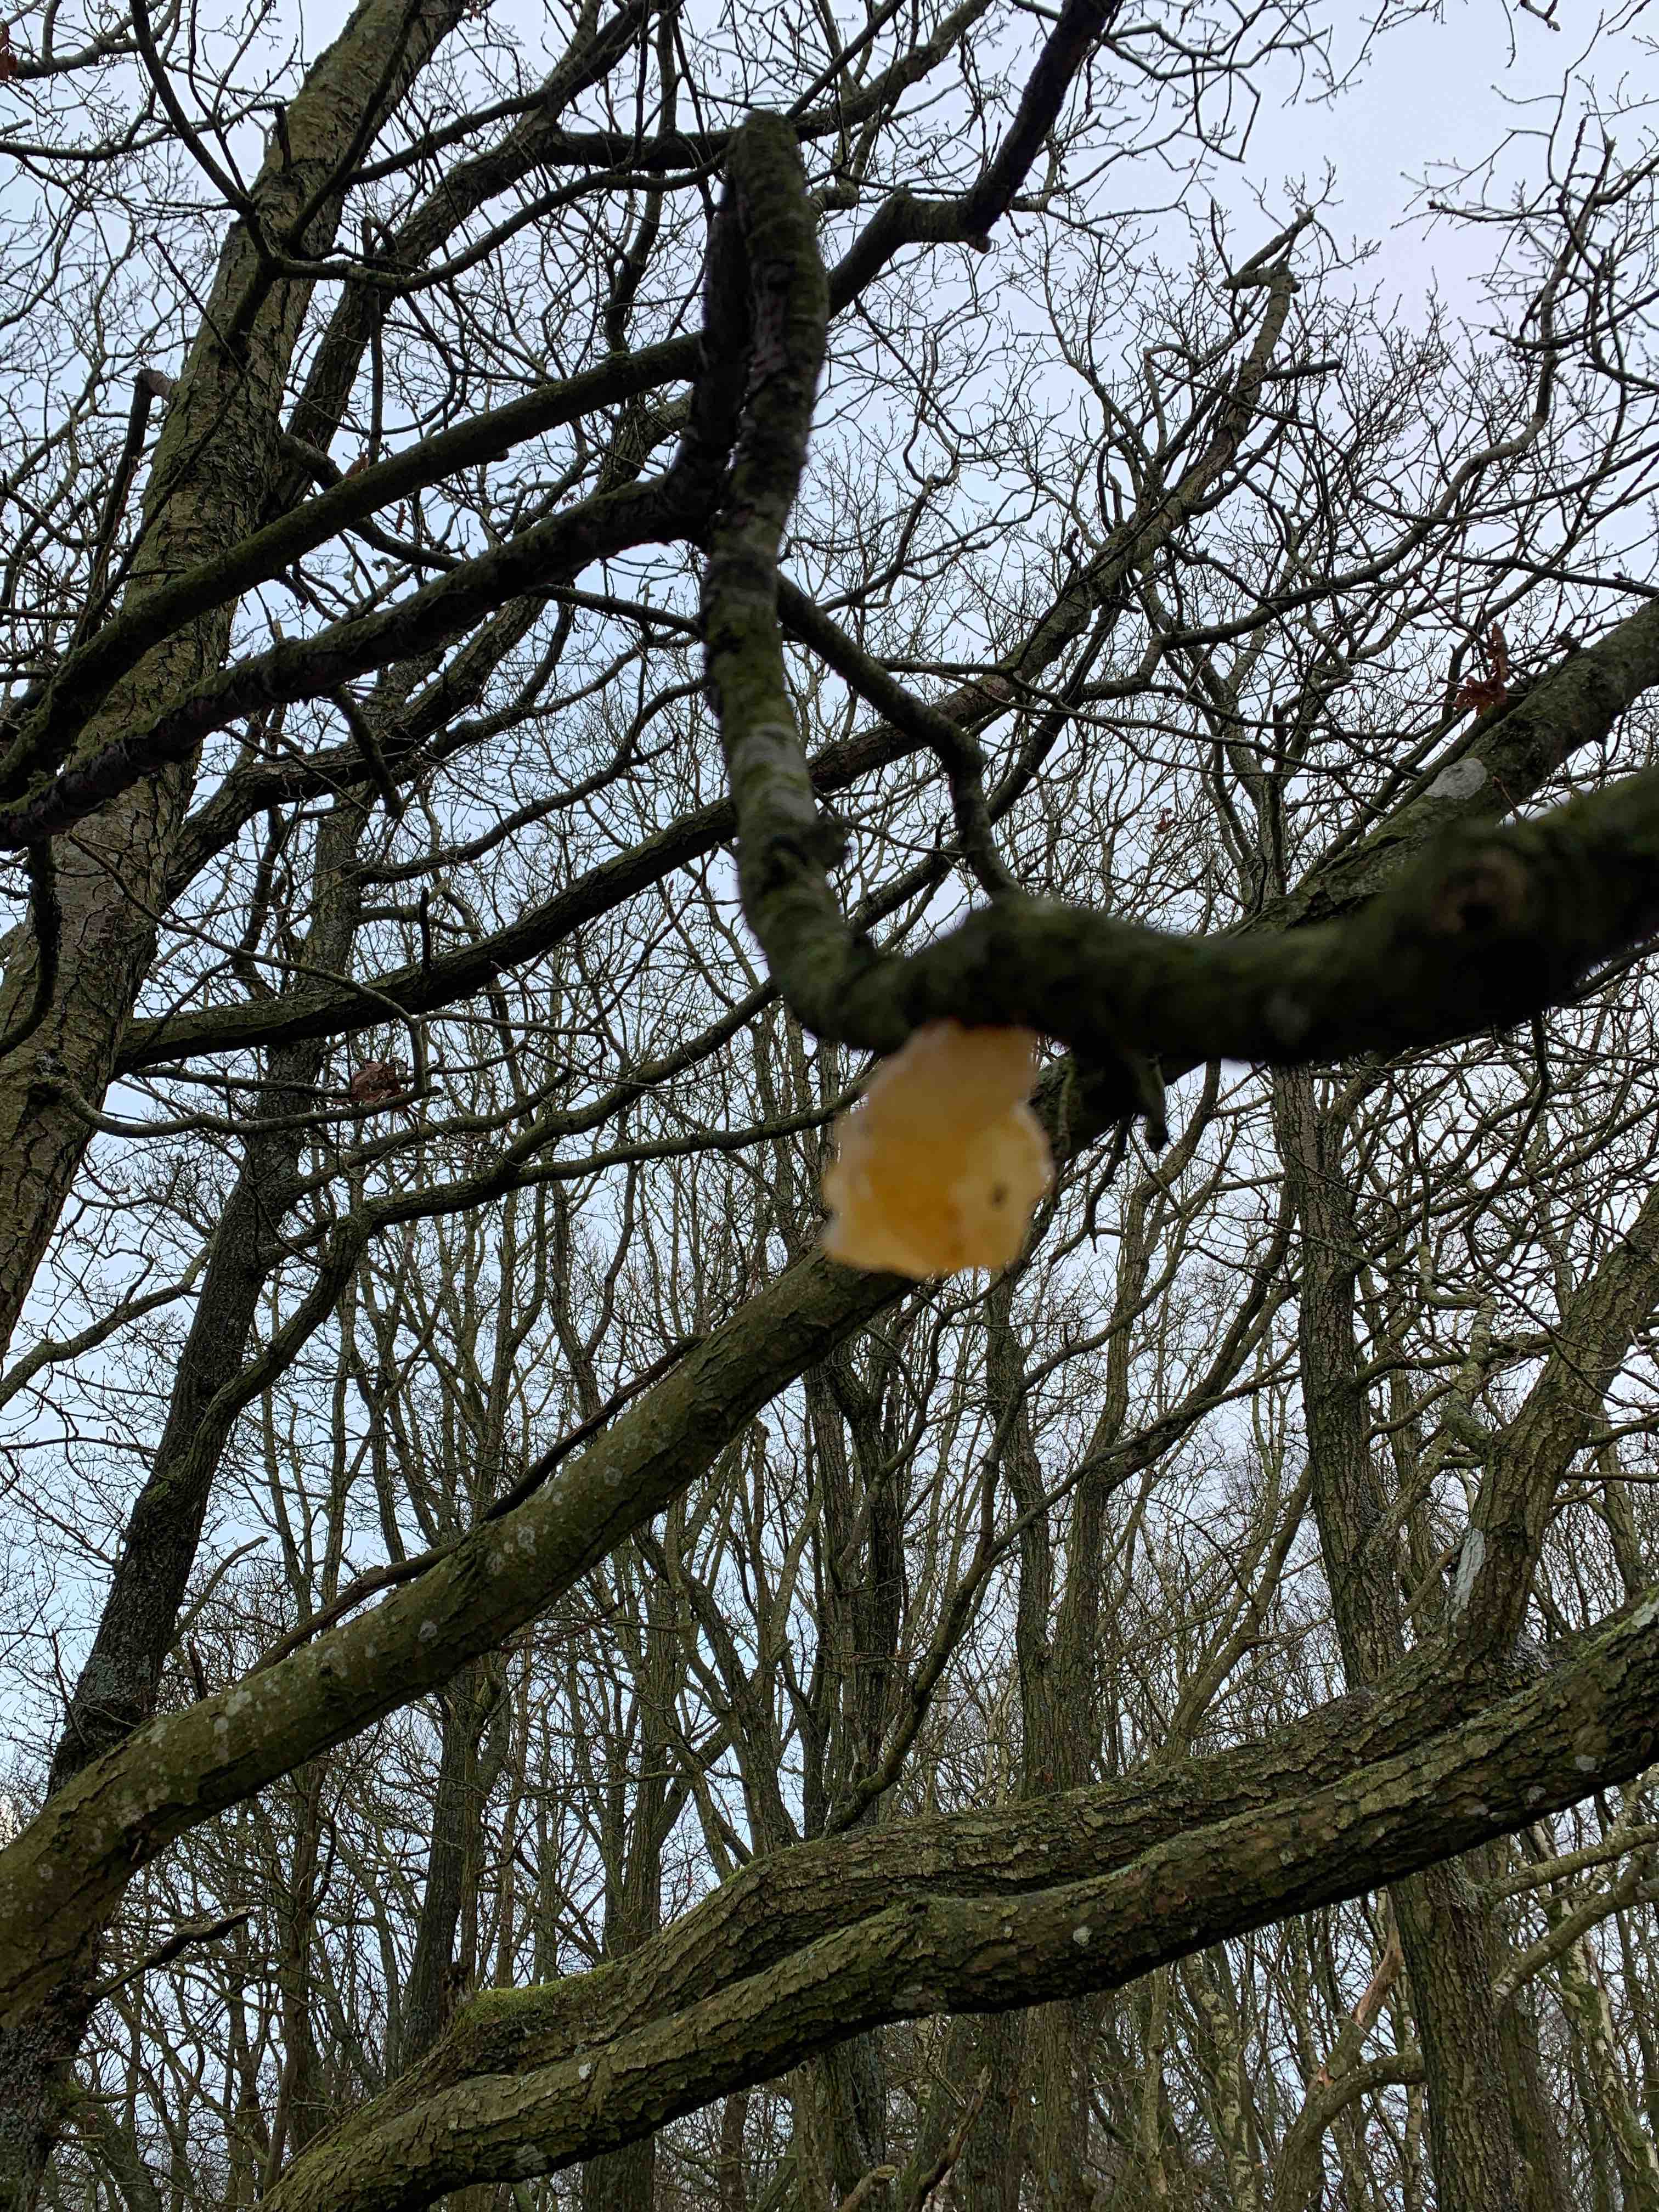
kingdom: Fungi
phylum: Basidiomycota
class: Tremellomycetes
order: Tremellales
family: Tremellaceae
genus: Tremella
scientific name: Tremella mesenterica
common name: gul bævresvamp
